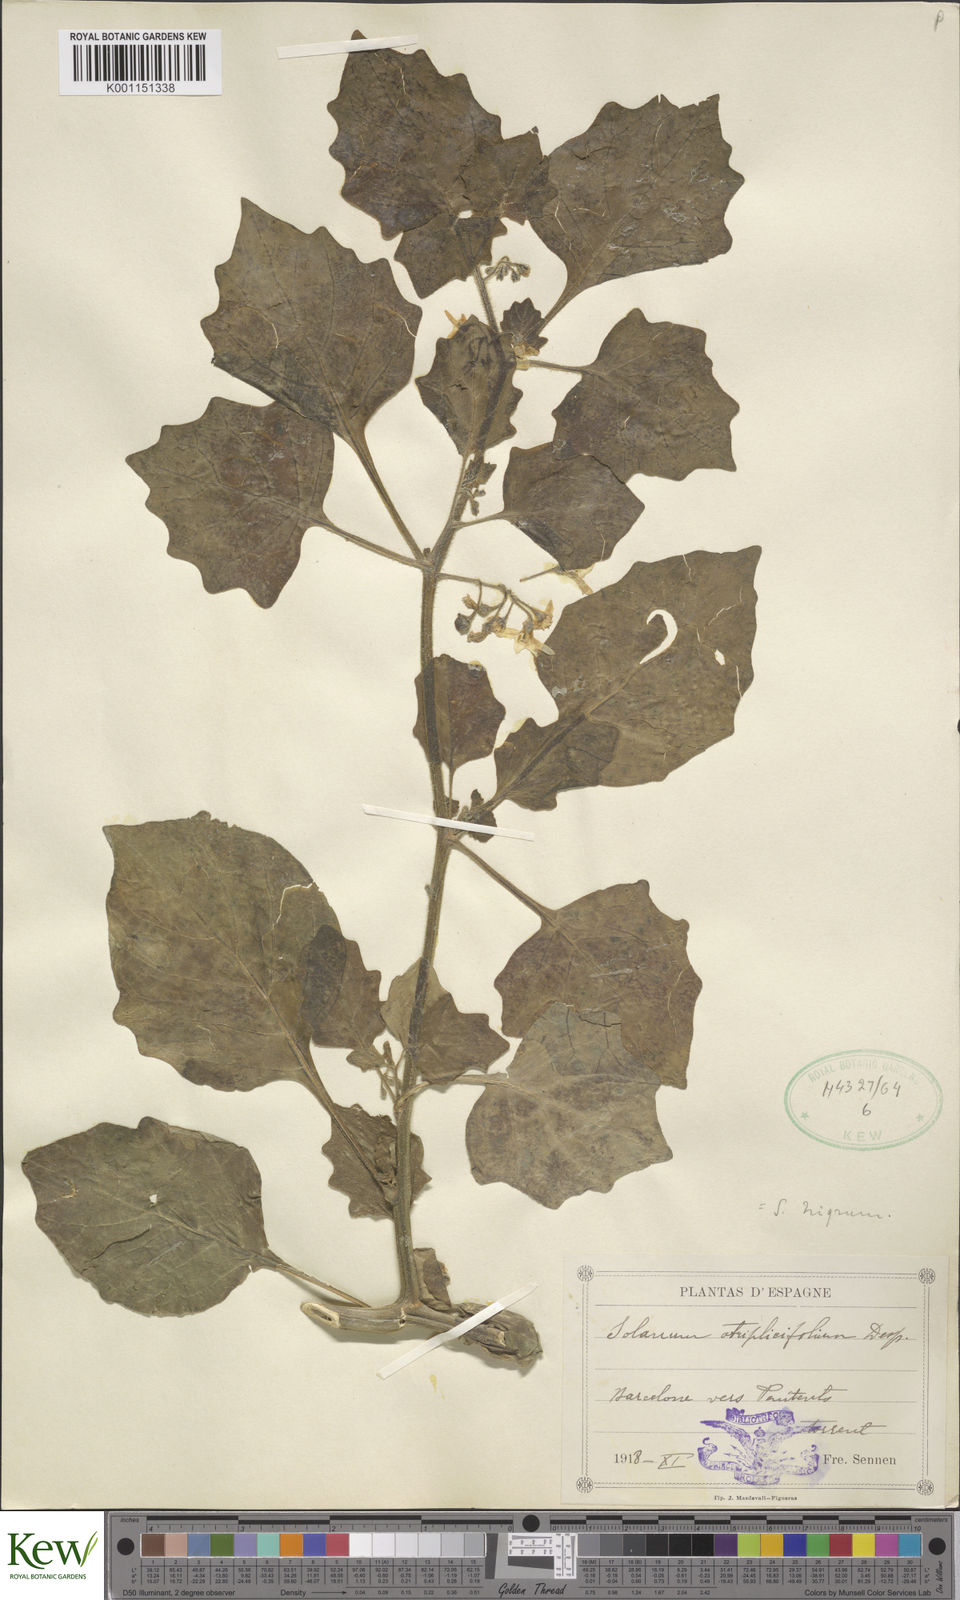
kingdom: Plantae
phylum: Tracheophyta
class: Magnoliopsida
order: Solanales
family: Solanaceae
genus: Solanum
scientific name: Solanum nigrum
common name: Black nightshade
